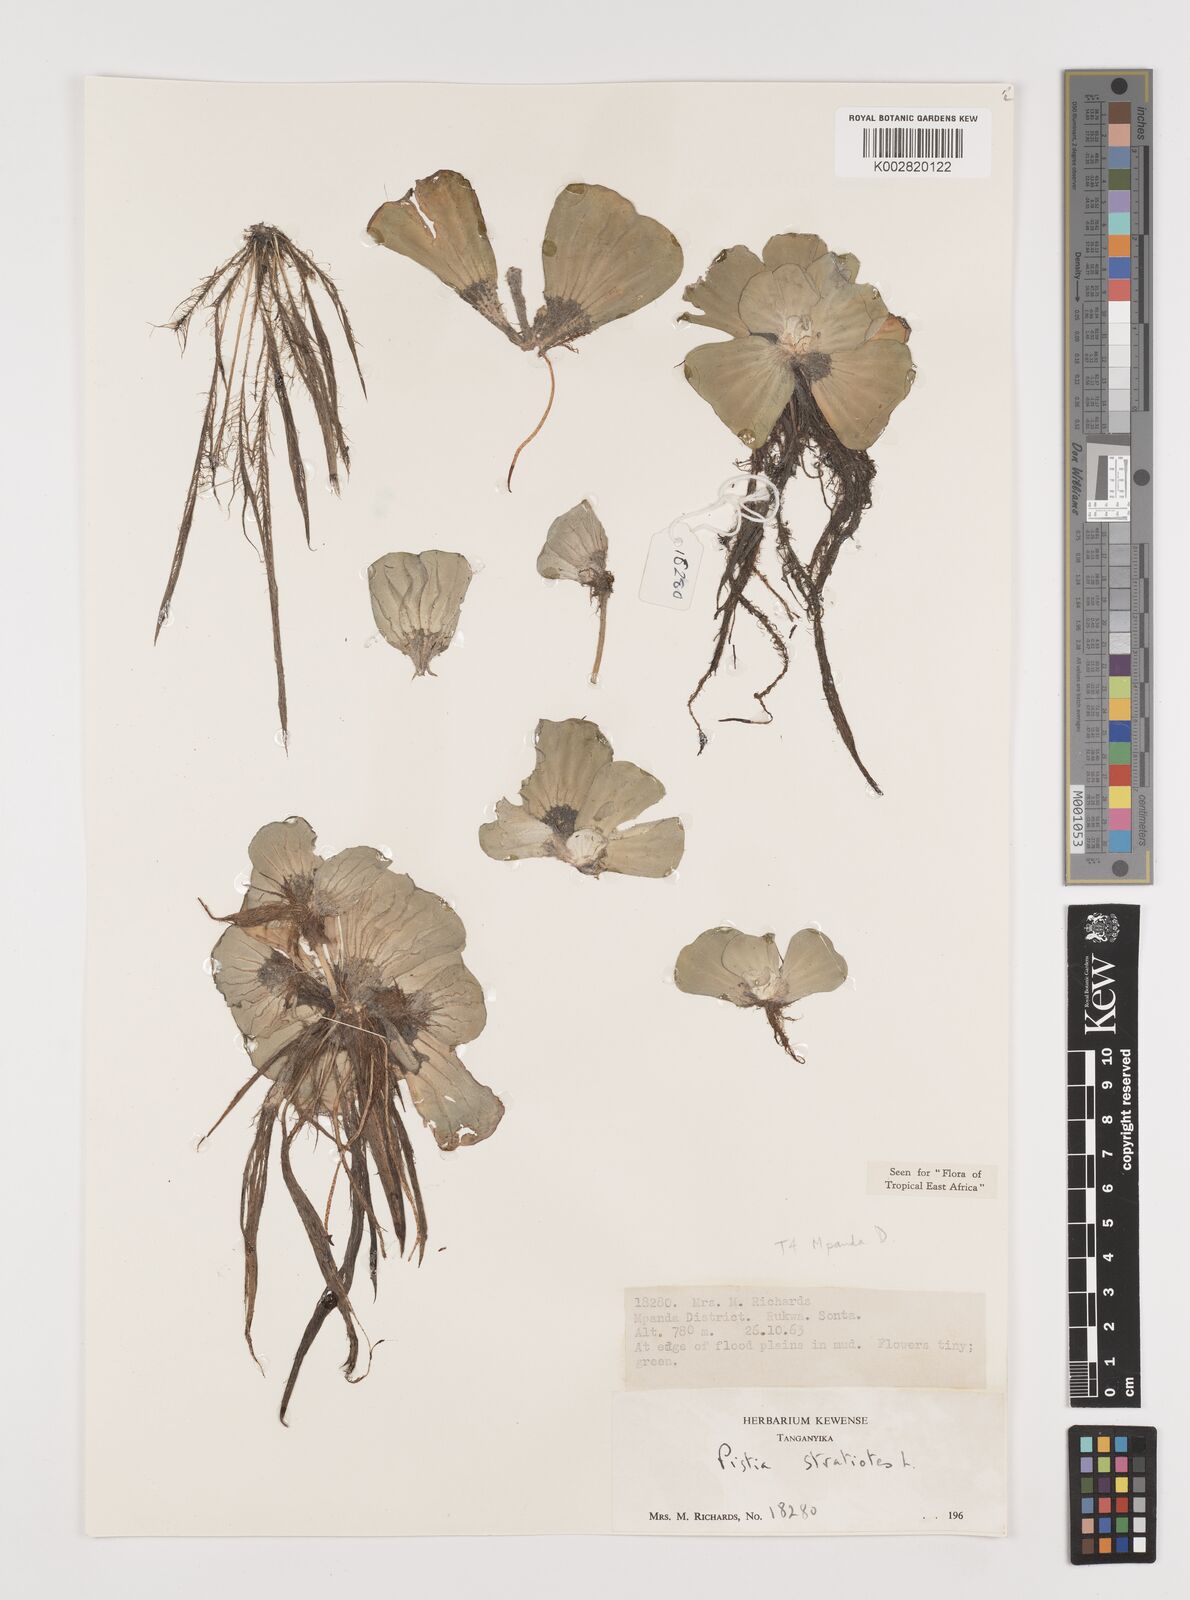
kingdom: Plantae
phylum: Tracheophyta
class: Liliopsida
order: Alismatales
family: Araceae
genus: Pistia
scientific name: Pistia stratiotes
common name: Water lettuce
